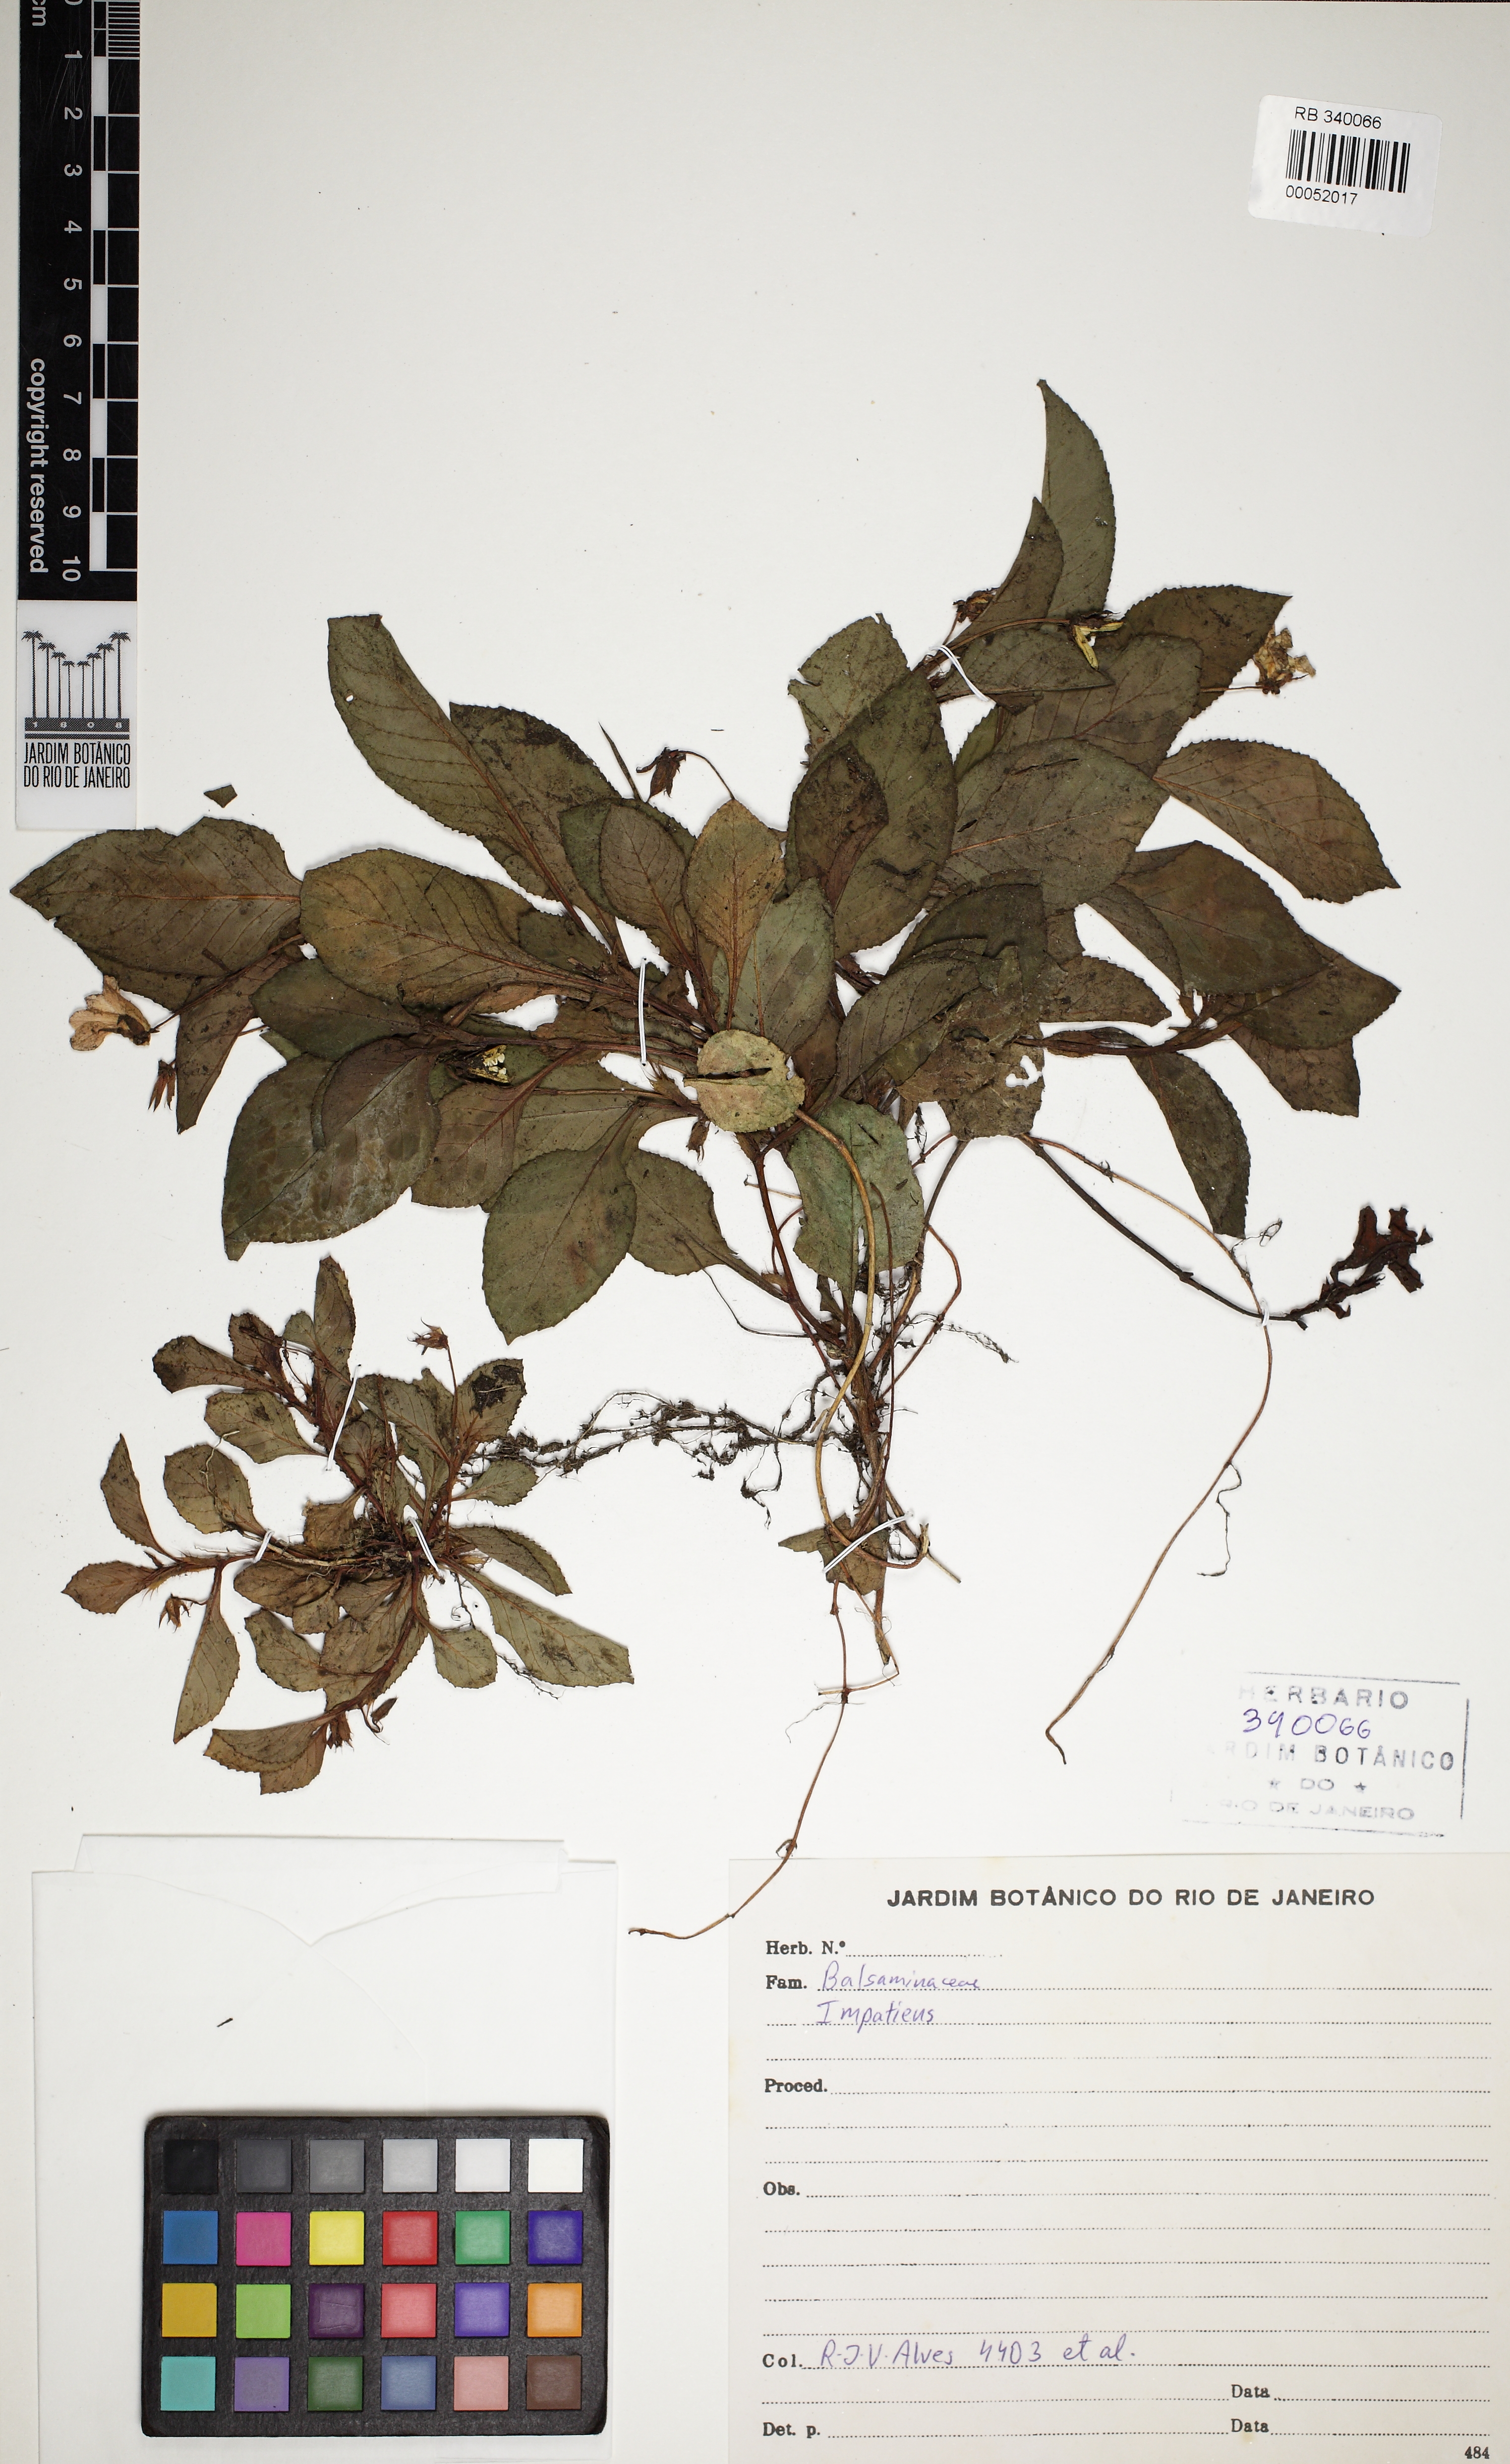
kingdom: Plantae
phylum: Tracheophyta
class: Magnoliopsida
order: Ericales
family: Balsaminaceae
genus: Impatiens
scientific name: Impatiens
